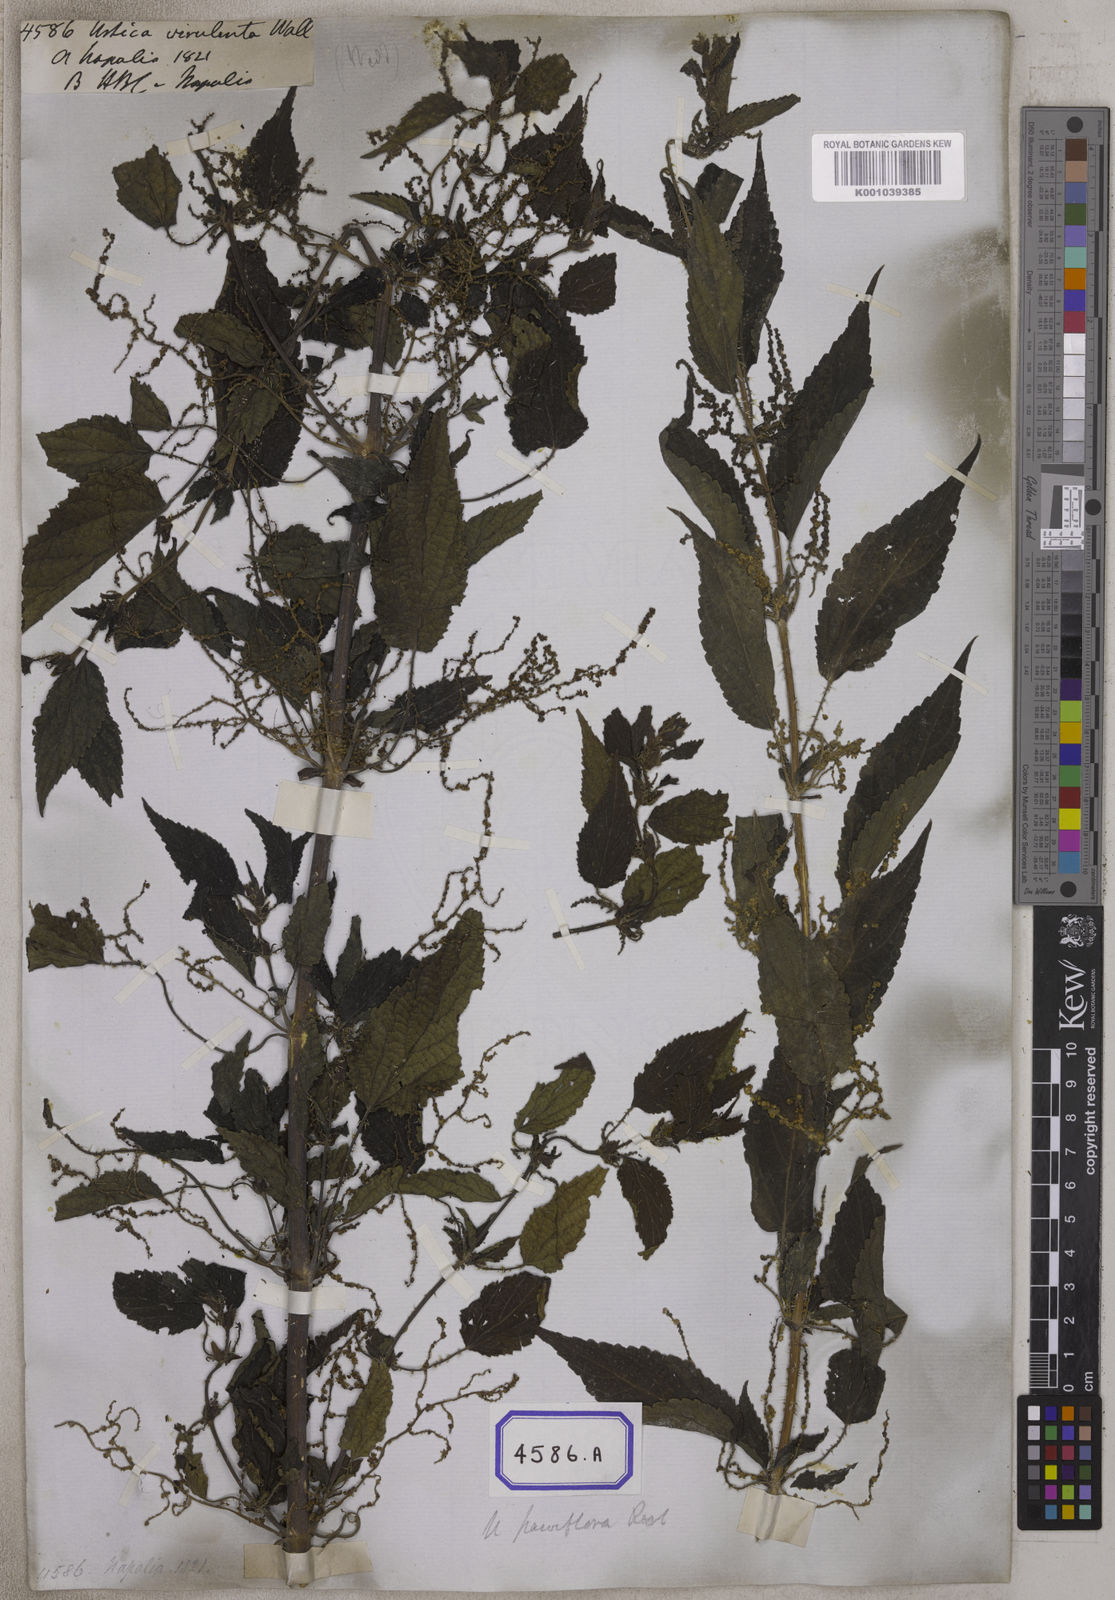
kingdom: Plantae
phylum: Tracheophyta
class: Magnoliopsida
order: Rosales
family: Urticaceae
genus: Urtica
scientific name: Urtica ardens
